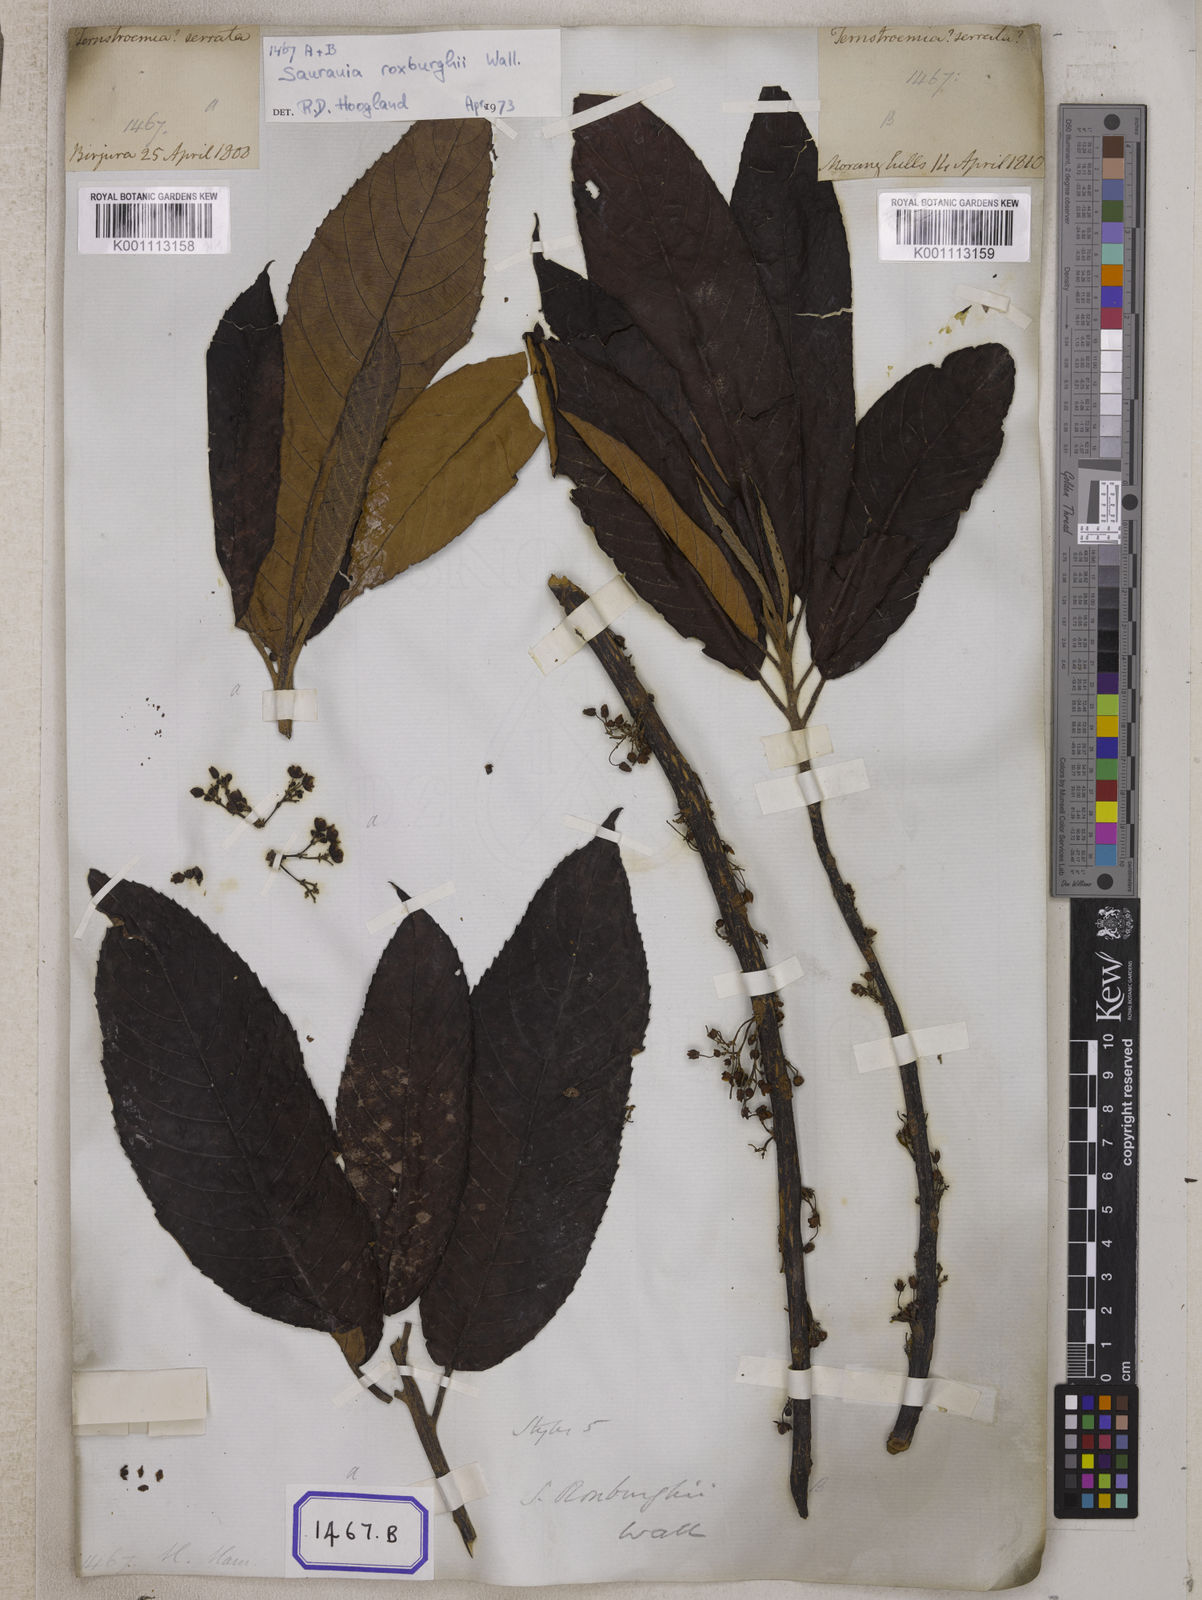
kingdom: Plantae
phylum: Tracheophyta
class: Magnoliopsida
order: Ericales
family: Actinidiaceae
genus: Saurauia
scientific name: Saurauia roxburghii
